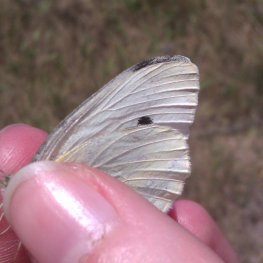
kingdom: Animalia
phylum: Arthropoda
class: Insecta
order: Lepidoptera
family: Pieridae
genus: Pieris
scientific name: Pieris rapae
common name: Cabbage White
